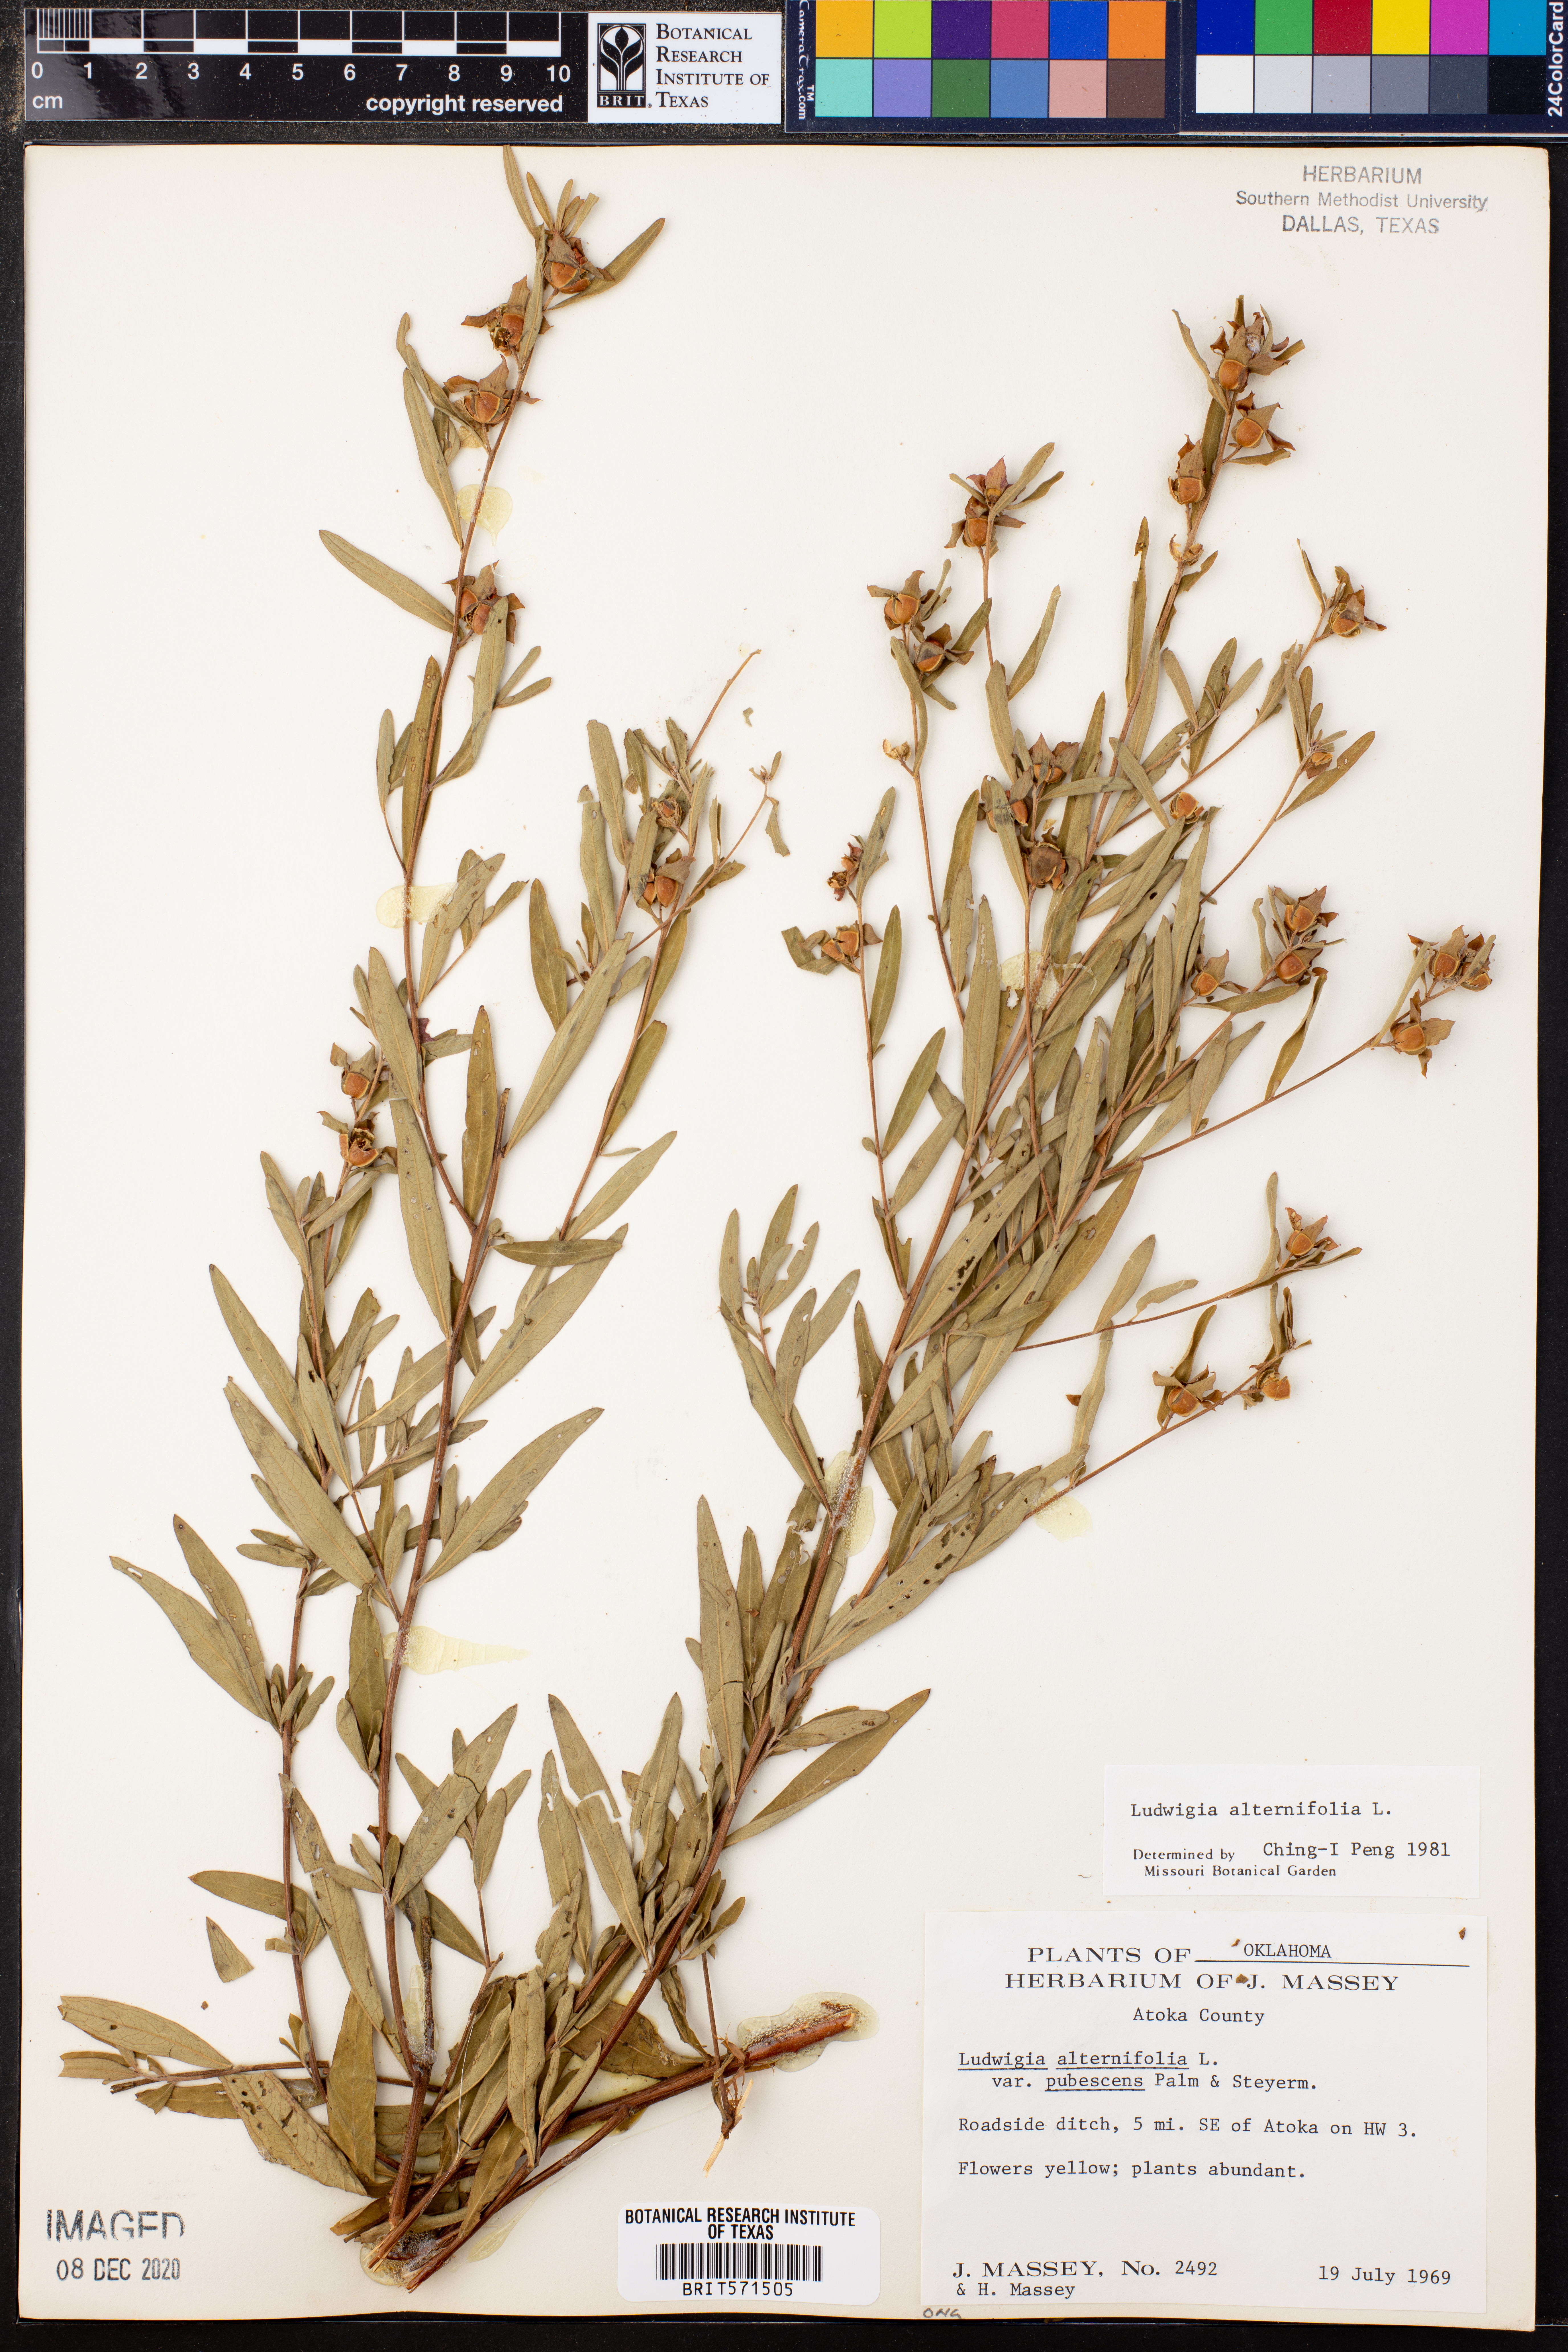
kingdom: Plantae
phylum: Tracheophyta
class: Magnoliopsida
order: Myrtales
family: Onagraceae
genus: Ludwigia
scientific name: Ludwigia alternifolia
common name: Rattlebox
